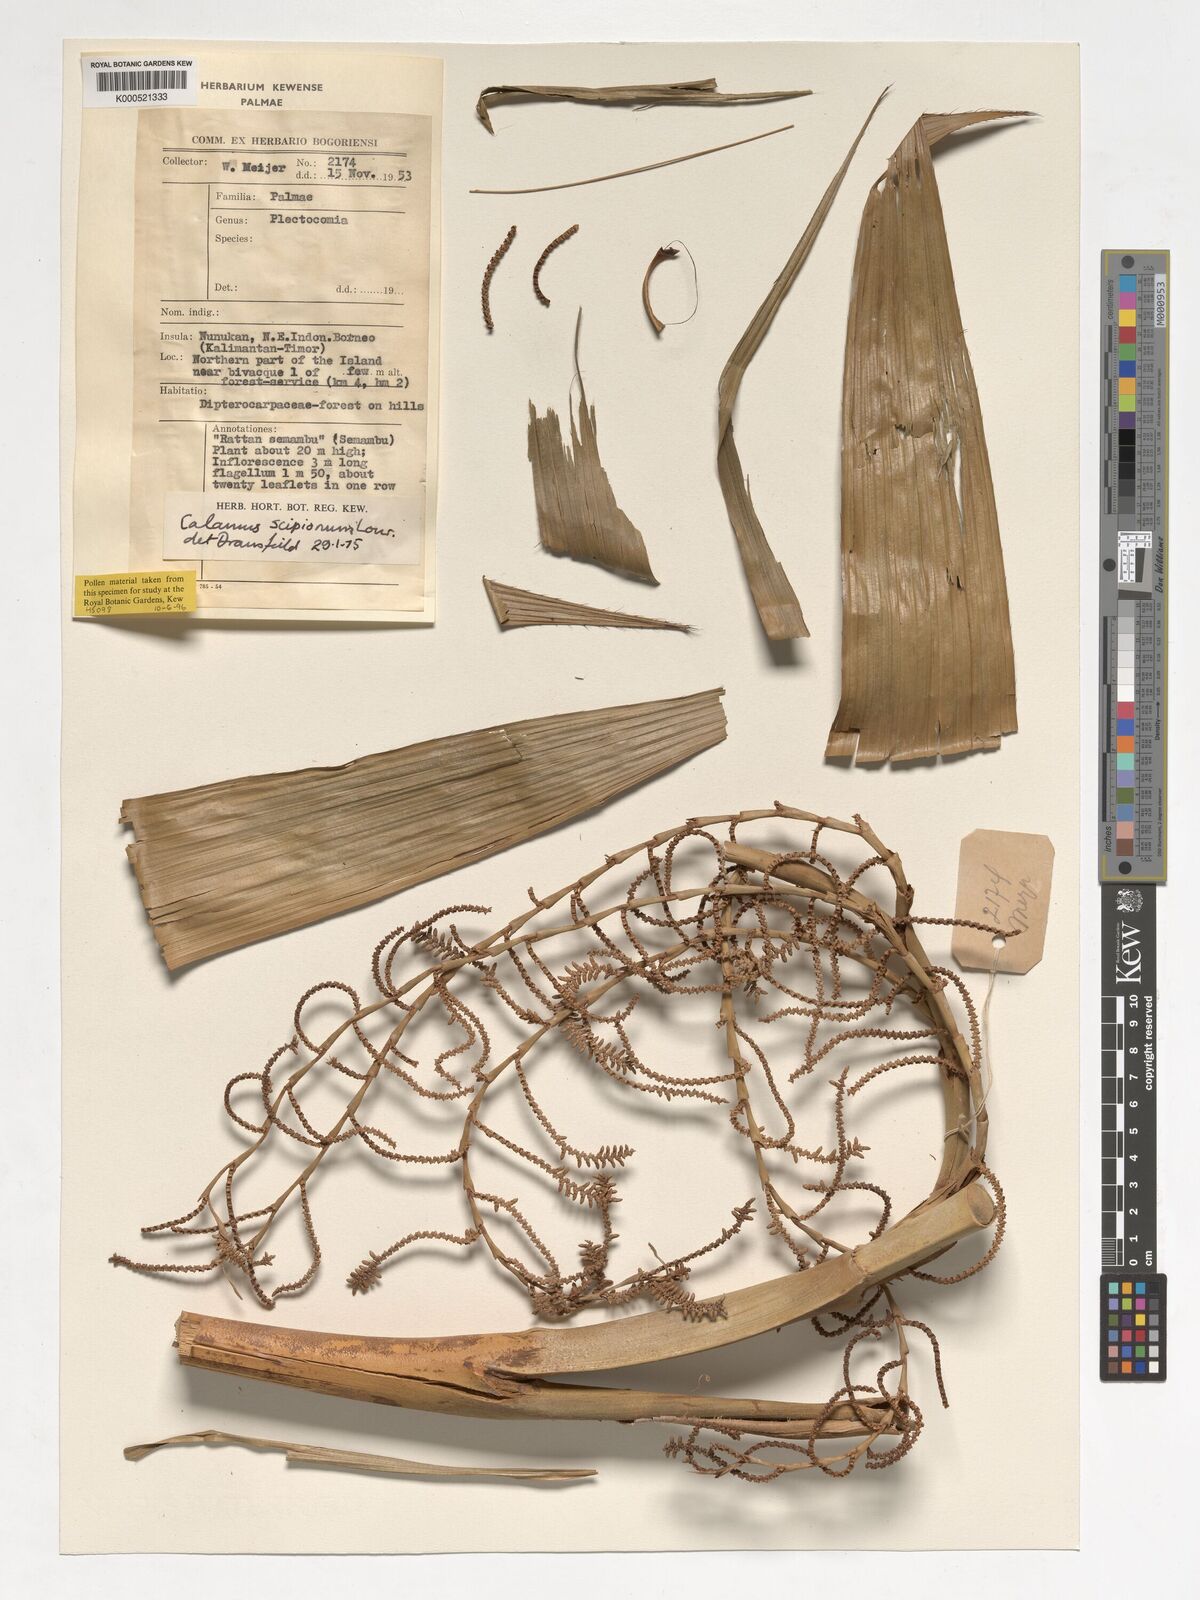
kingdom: Plantae
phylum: Tracheophyta
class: Liliopsida
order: Arecales
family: Arecaceae
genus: Calamus
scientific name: Calamus scipionum
